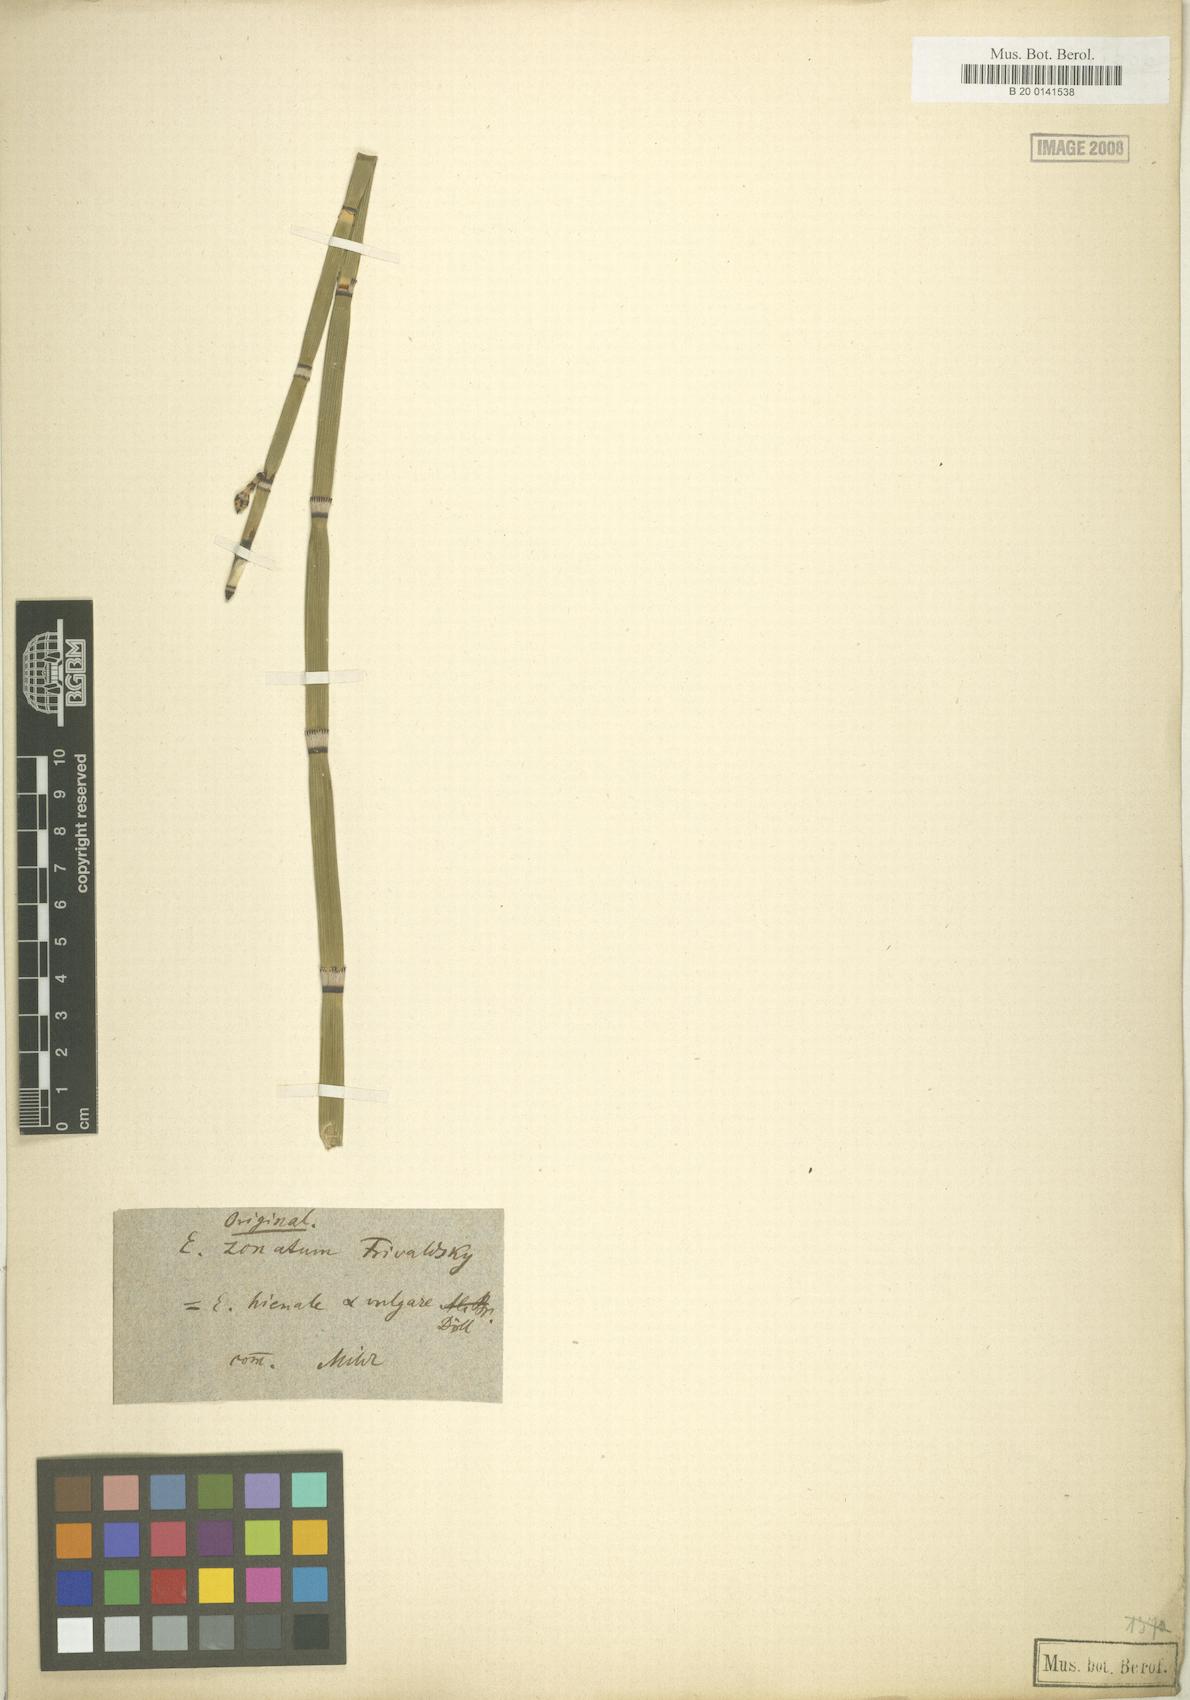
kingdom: Plantae
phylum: Tracheophyta
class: Polypodiopsida
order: Equisetales
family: Equisetaceae
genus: Equisetum
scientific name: Equisetum hyemale
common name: Rough horsetail
